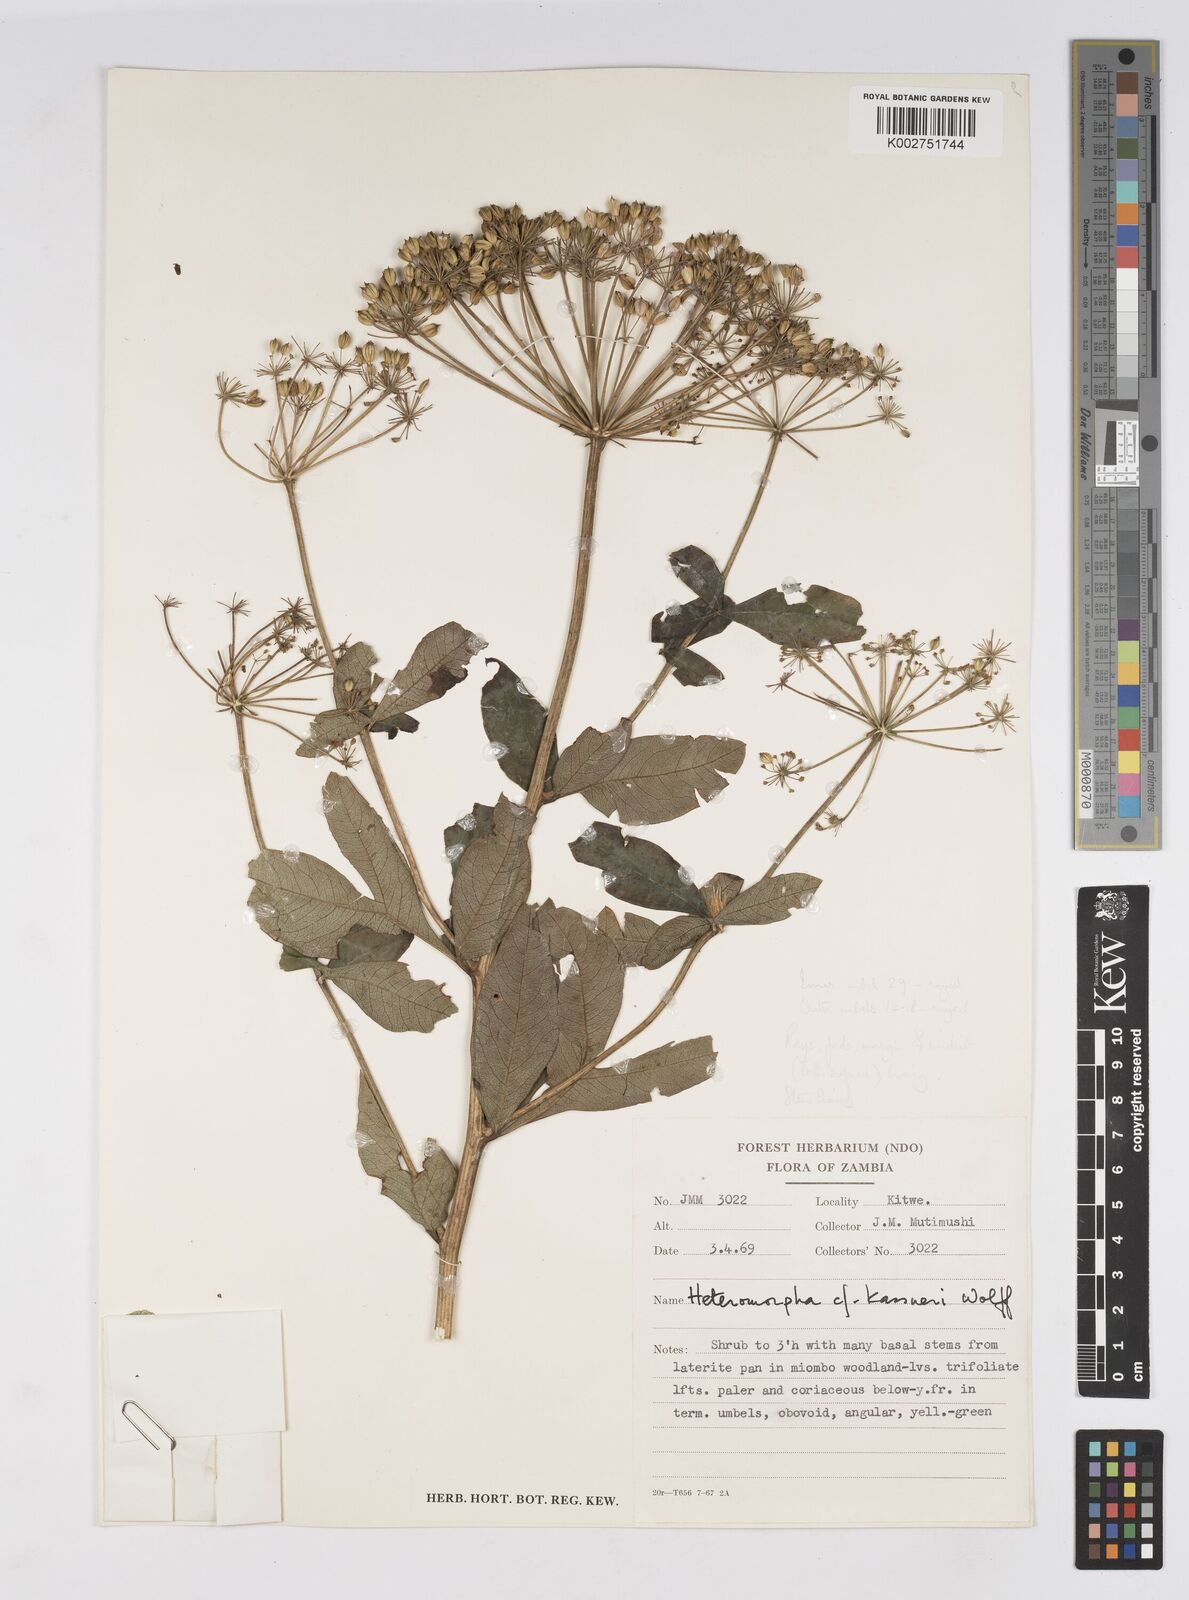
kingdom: Plantae
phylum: Tracheophyta
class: Magnoliopsida
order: Apiales
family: Apiaceae
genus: Heteromorpha
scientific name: Heteromorpha involucrata
